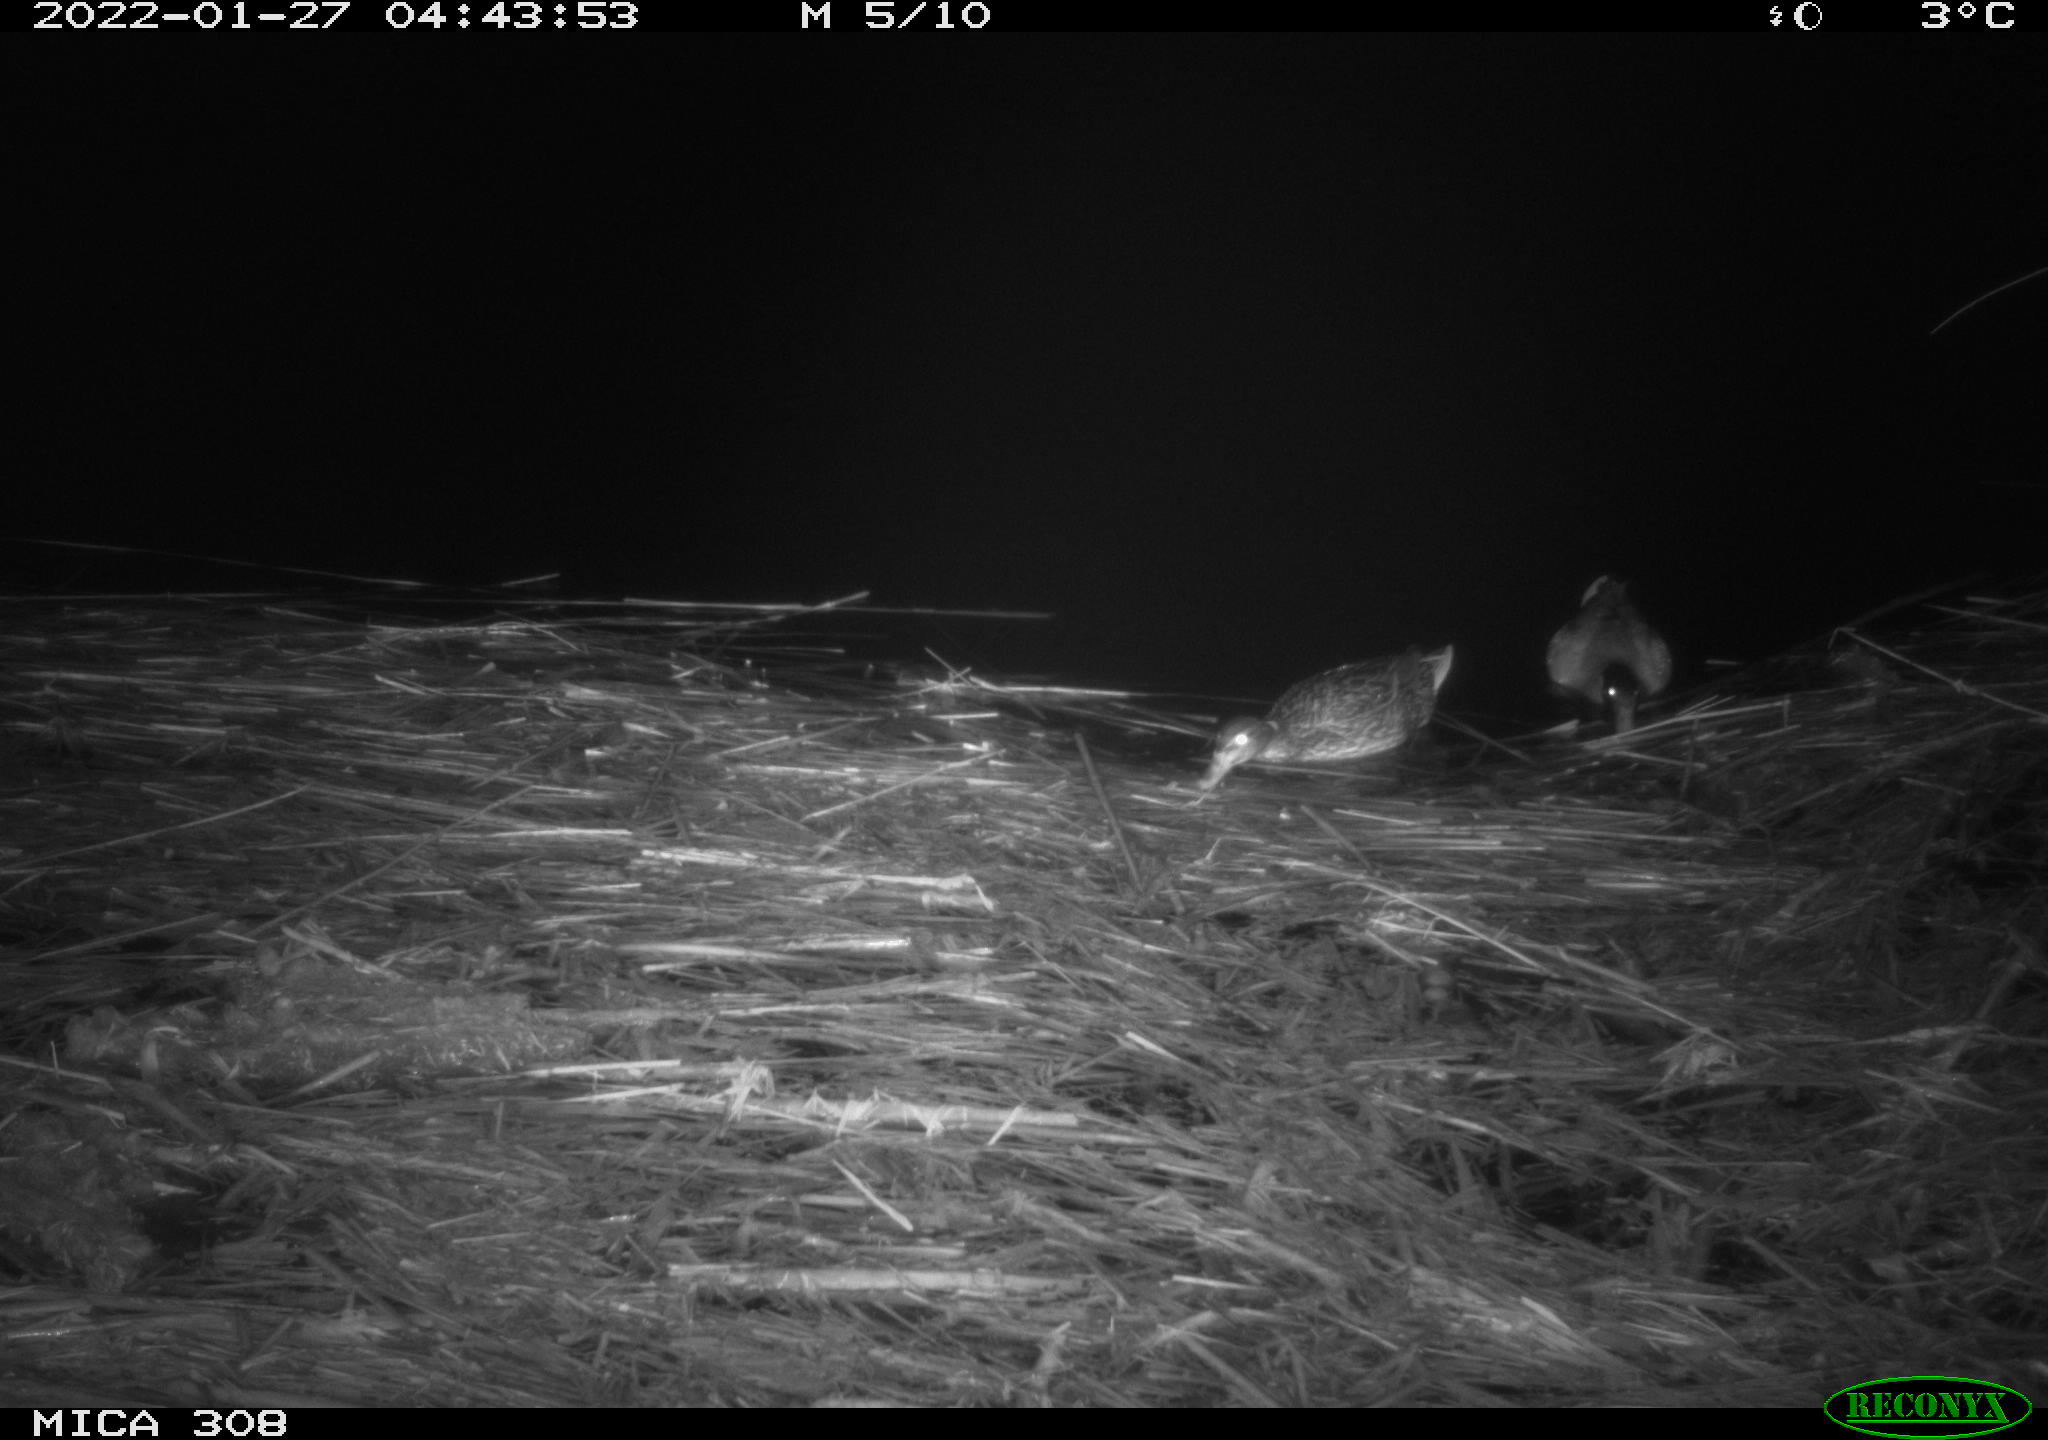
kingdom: Animalia
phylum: Chordata
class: Aves
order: Anseriformes
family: Anatidae
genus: Anas
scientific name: Anas
